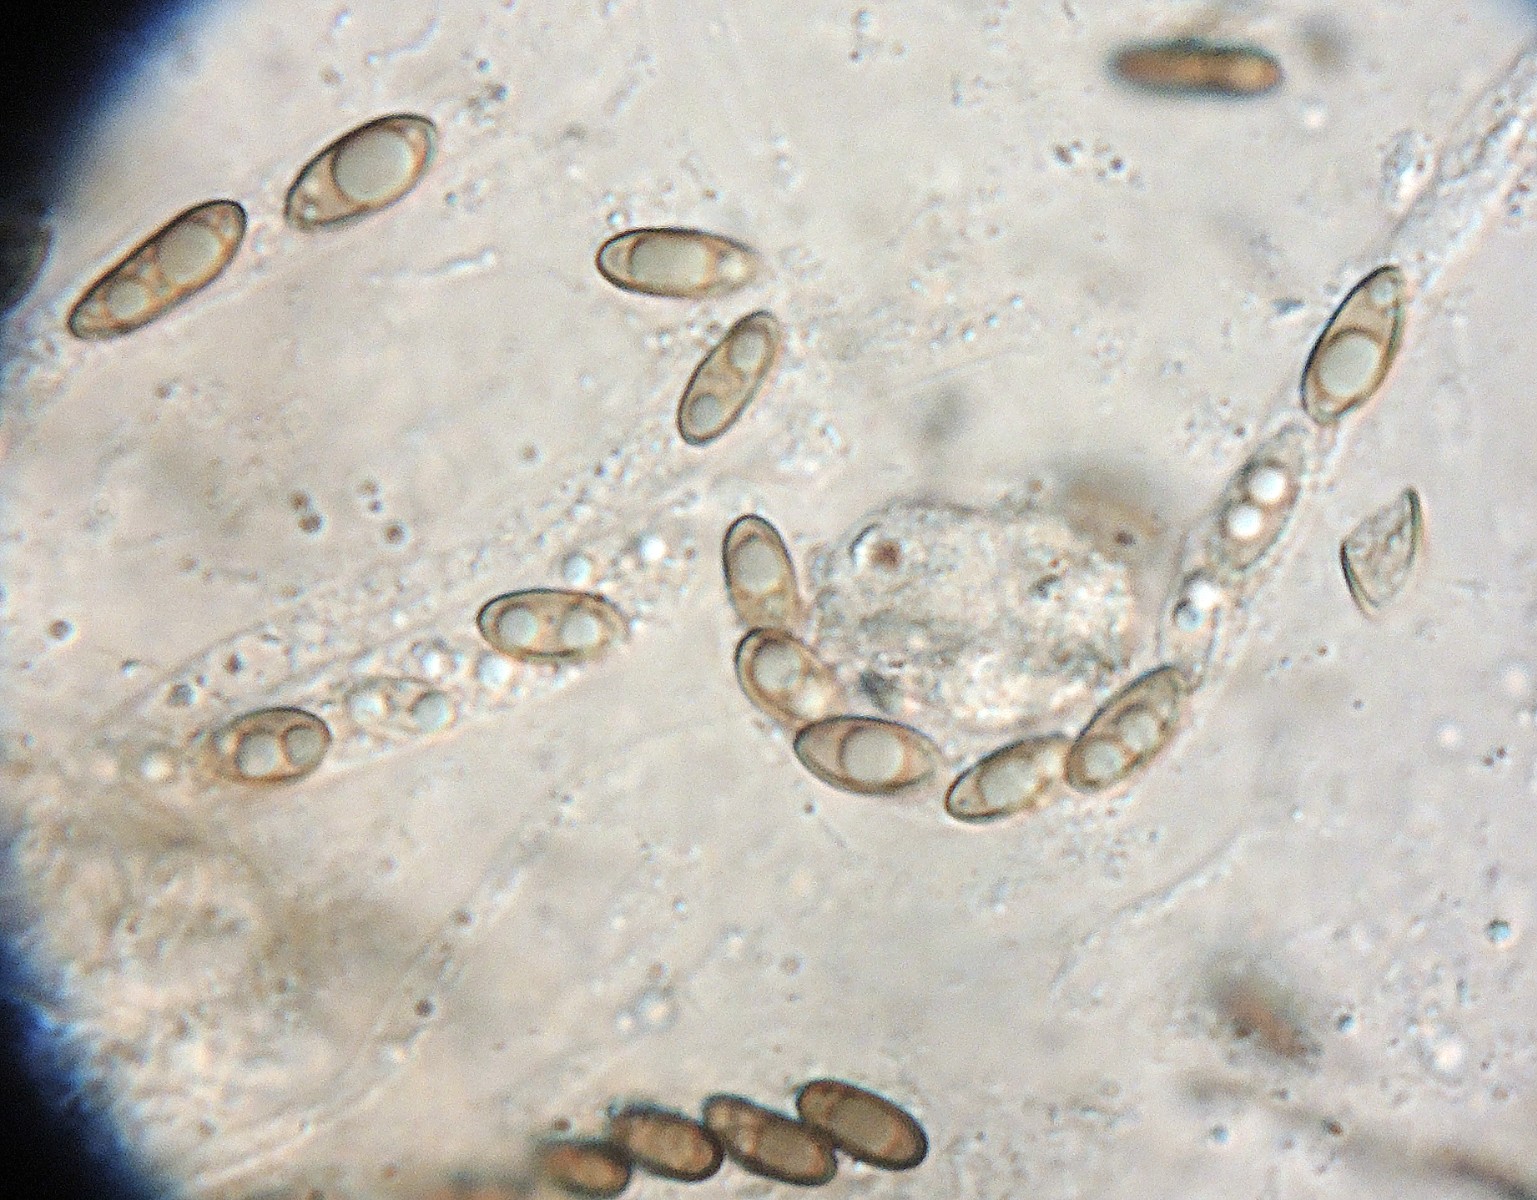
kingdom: Fungi
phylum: Ascomycota
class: Sordariomycetes
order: Xylariales
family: Xylariaceae
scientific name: Xylariaceae
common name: stødsvampfamilien
